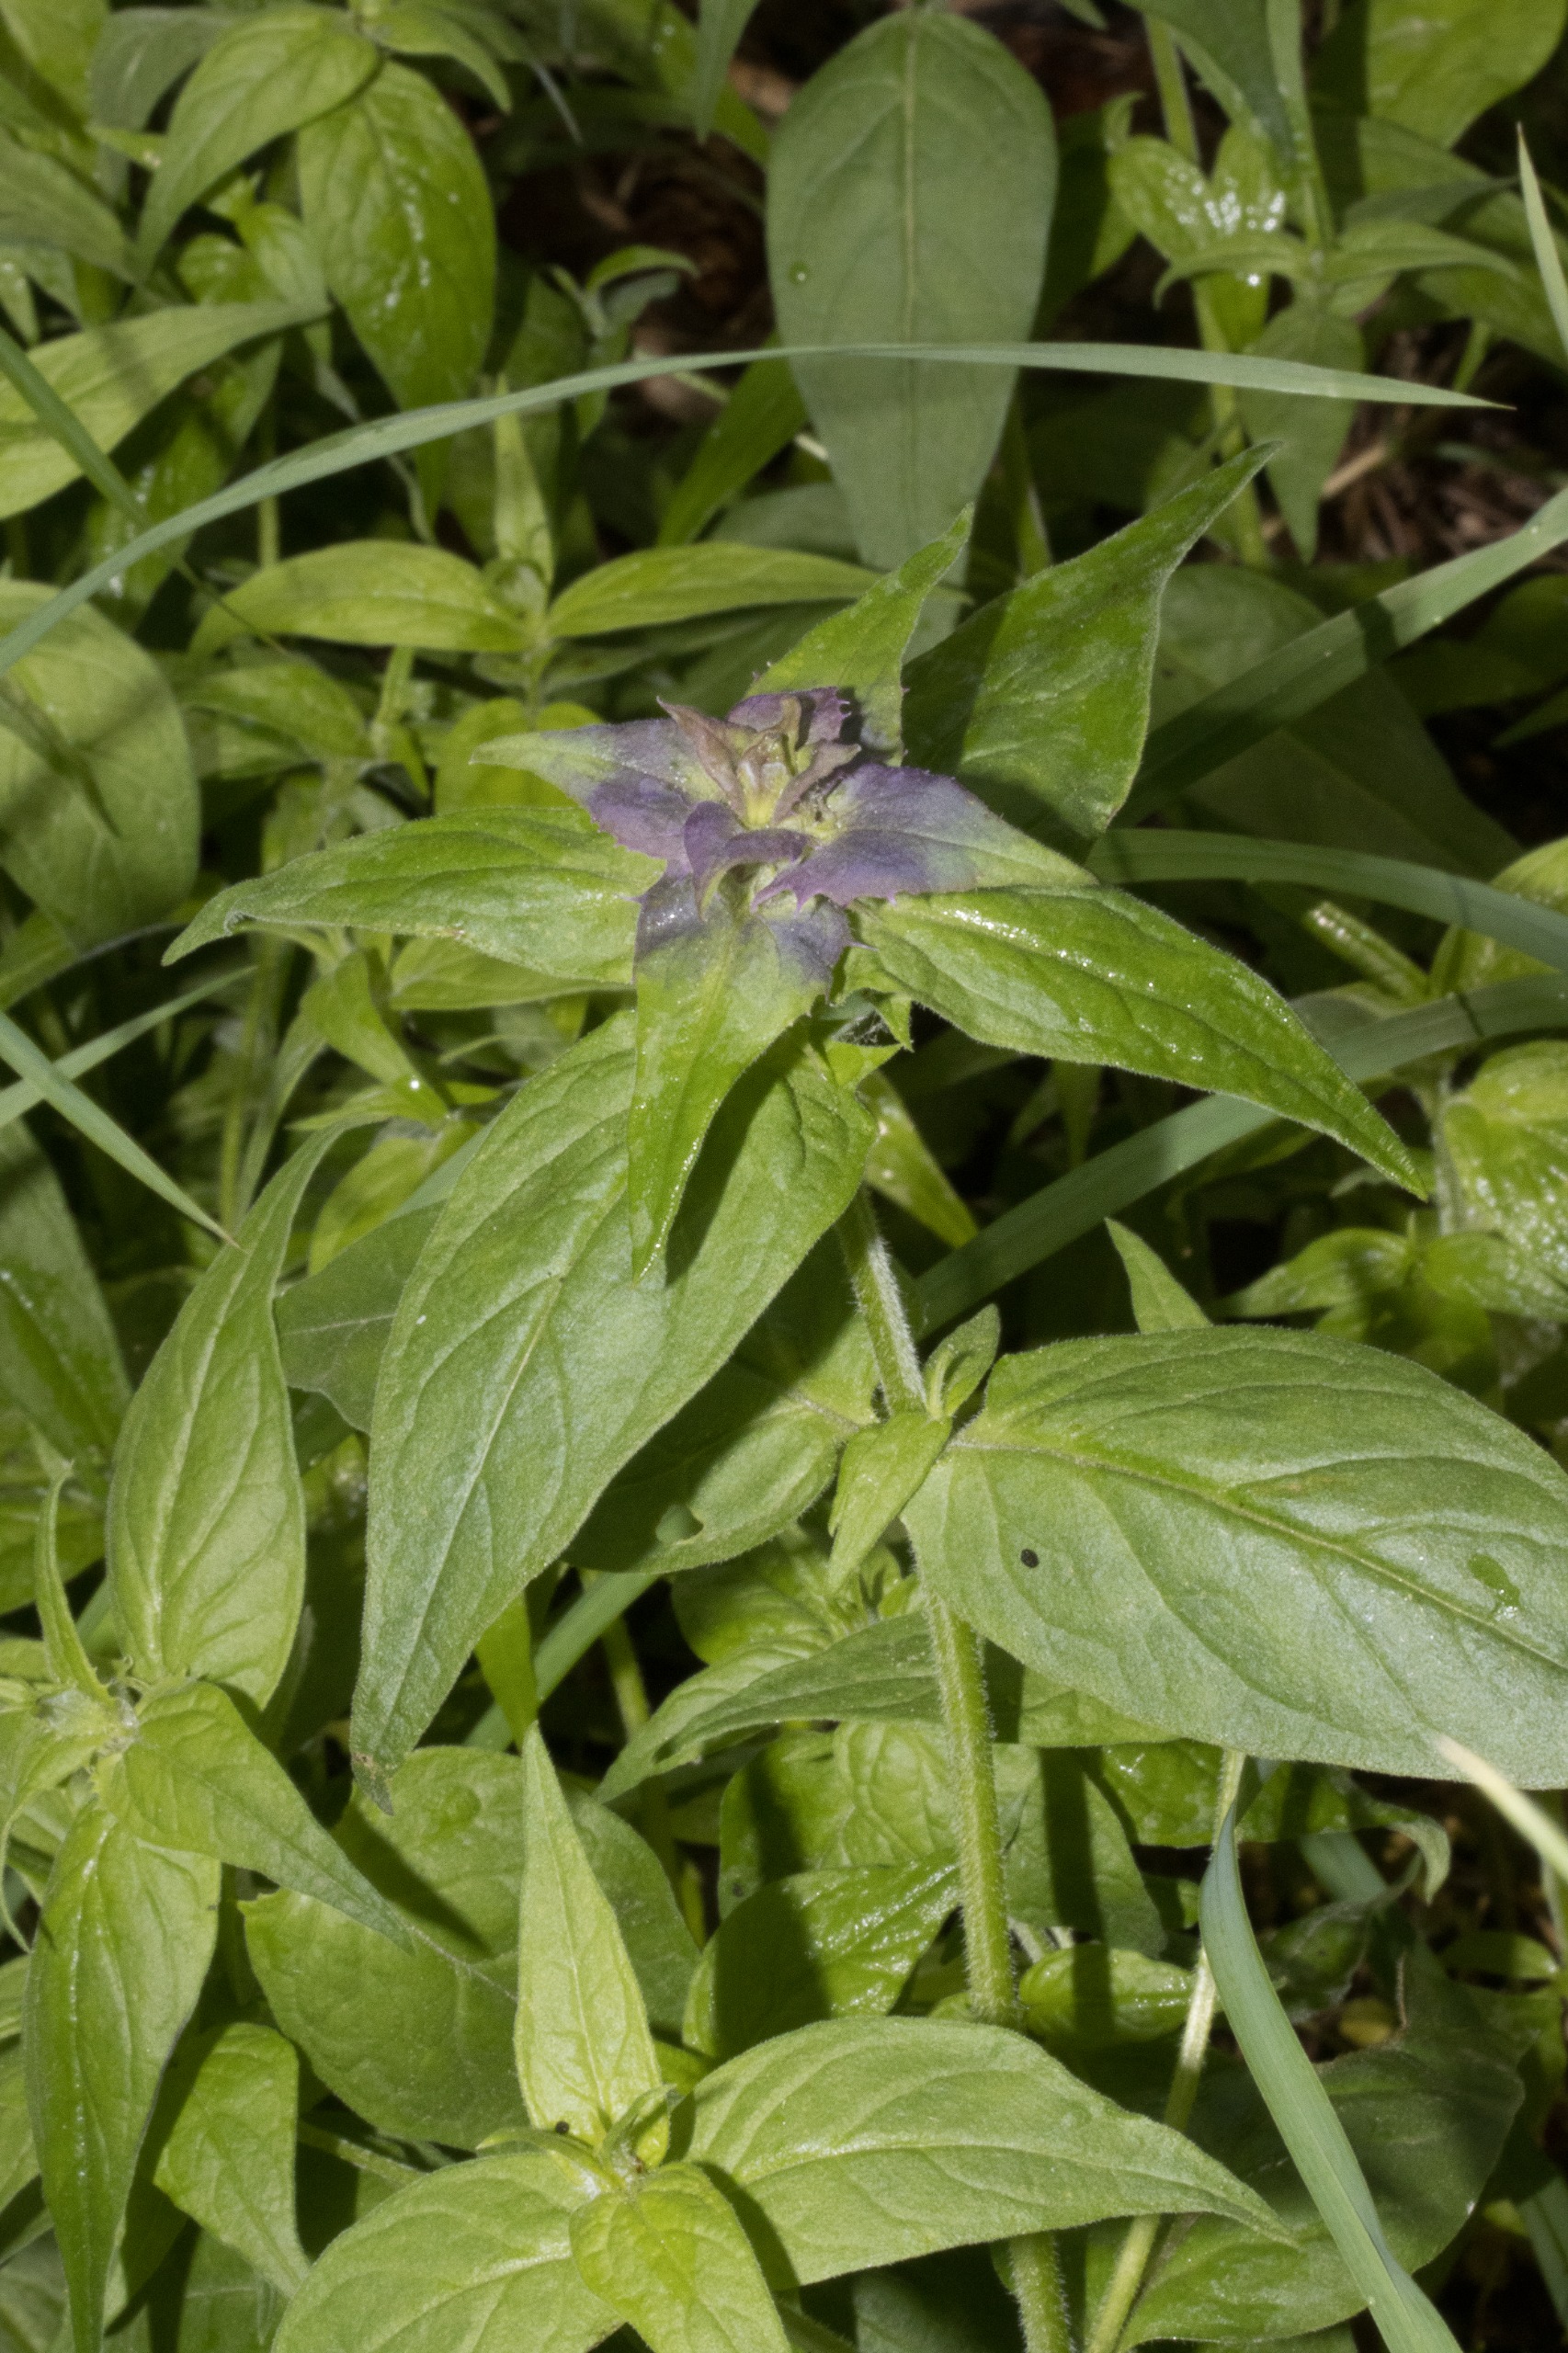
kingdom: Plantae
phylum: Tracheophyta
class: Magnoliopsida
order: Lamiales
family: Orobanchaceae
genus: Melampyrum
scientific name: Melampyrum nemorosum
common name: Blåtoppet kohvede
